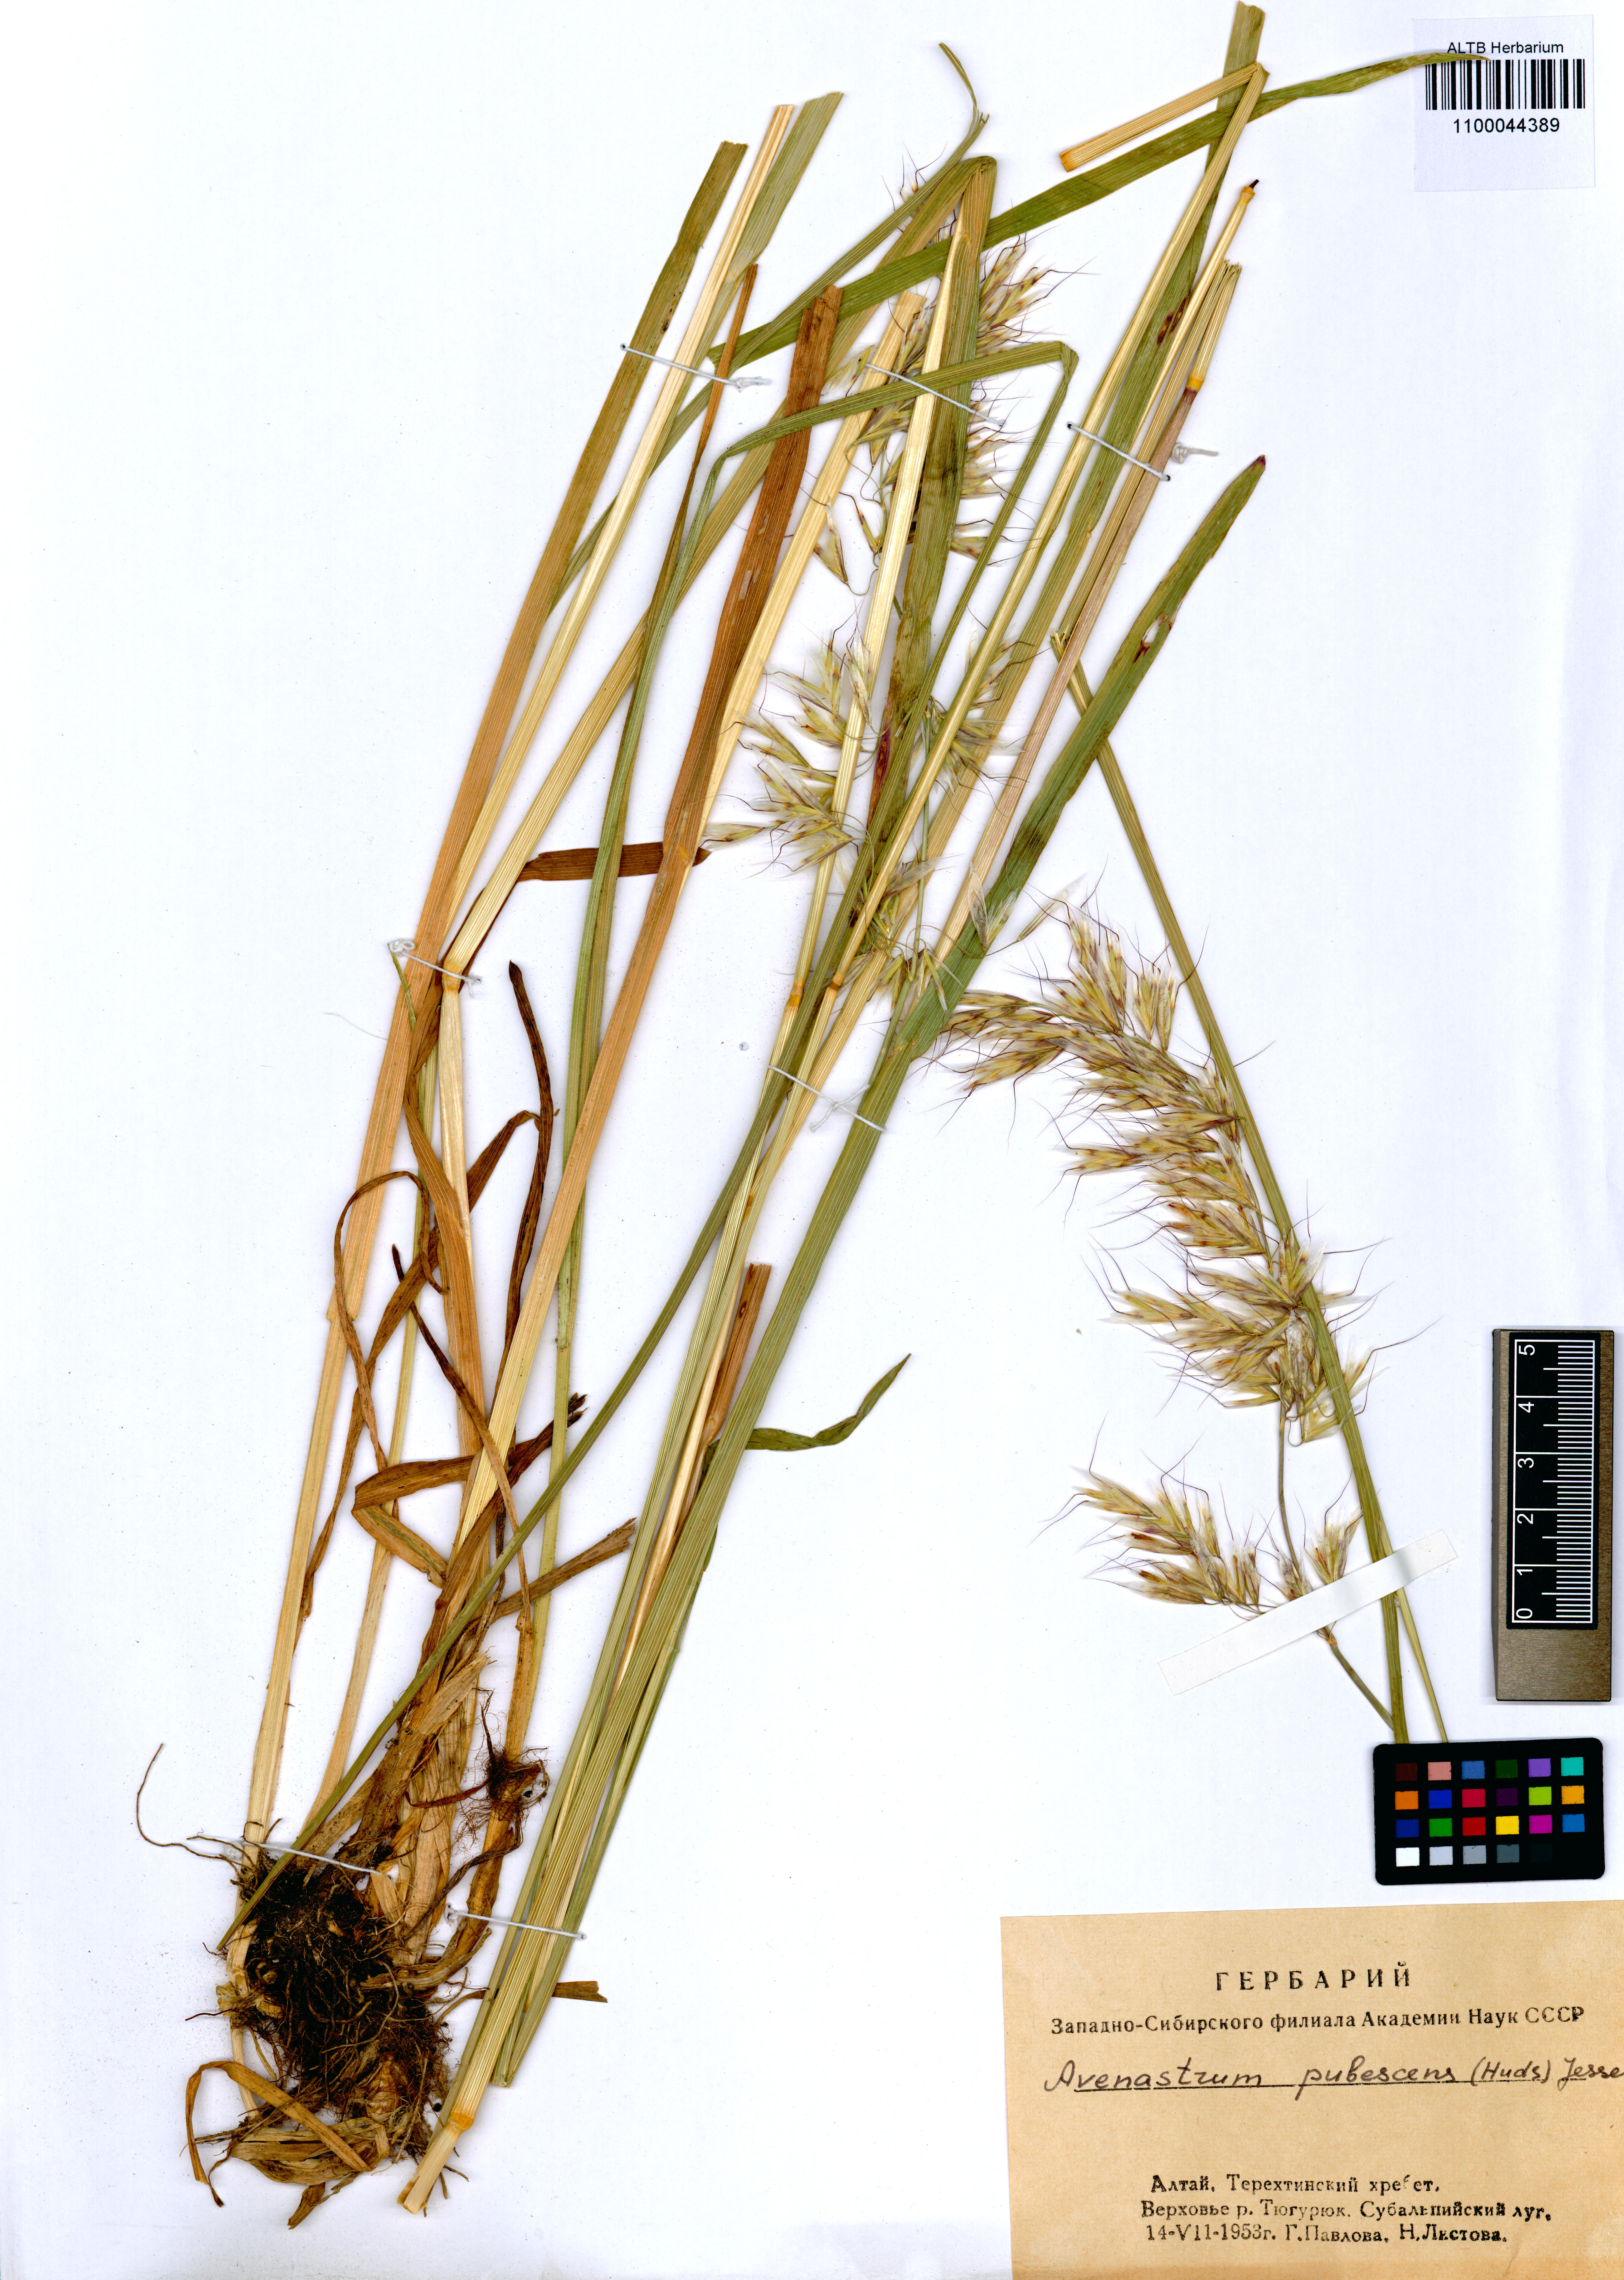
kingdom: Plantae
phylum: Tracheophyta
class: Liliopsida
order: Poales
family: Poaceae
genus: Avenula
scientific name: Avenula pubescens
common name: Downy alpine oatgrass
